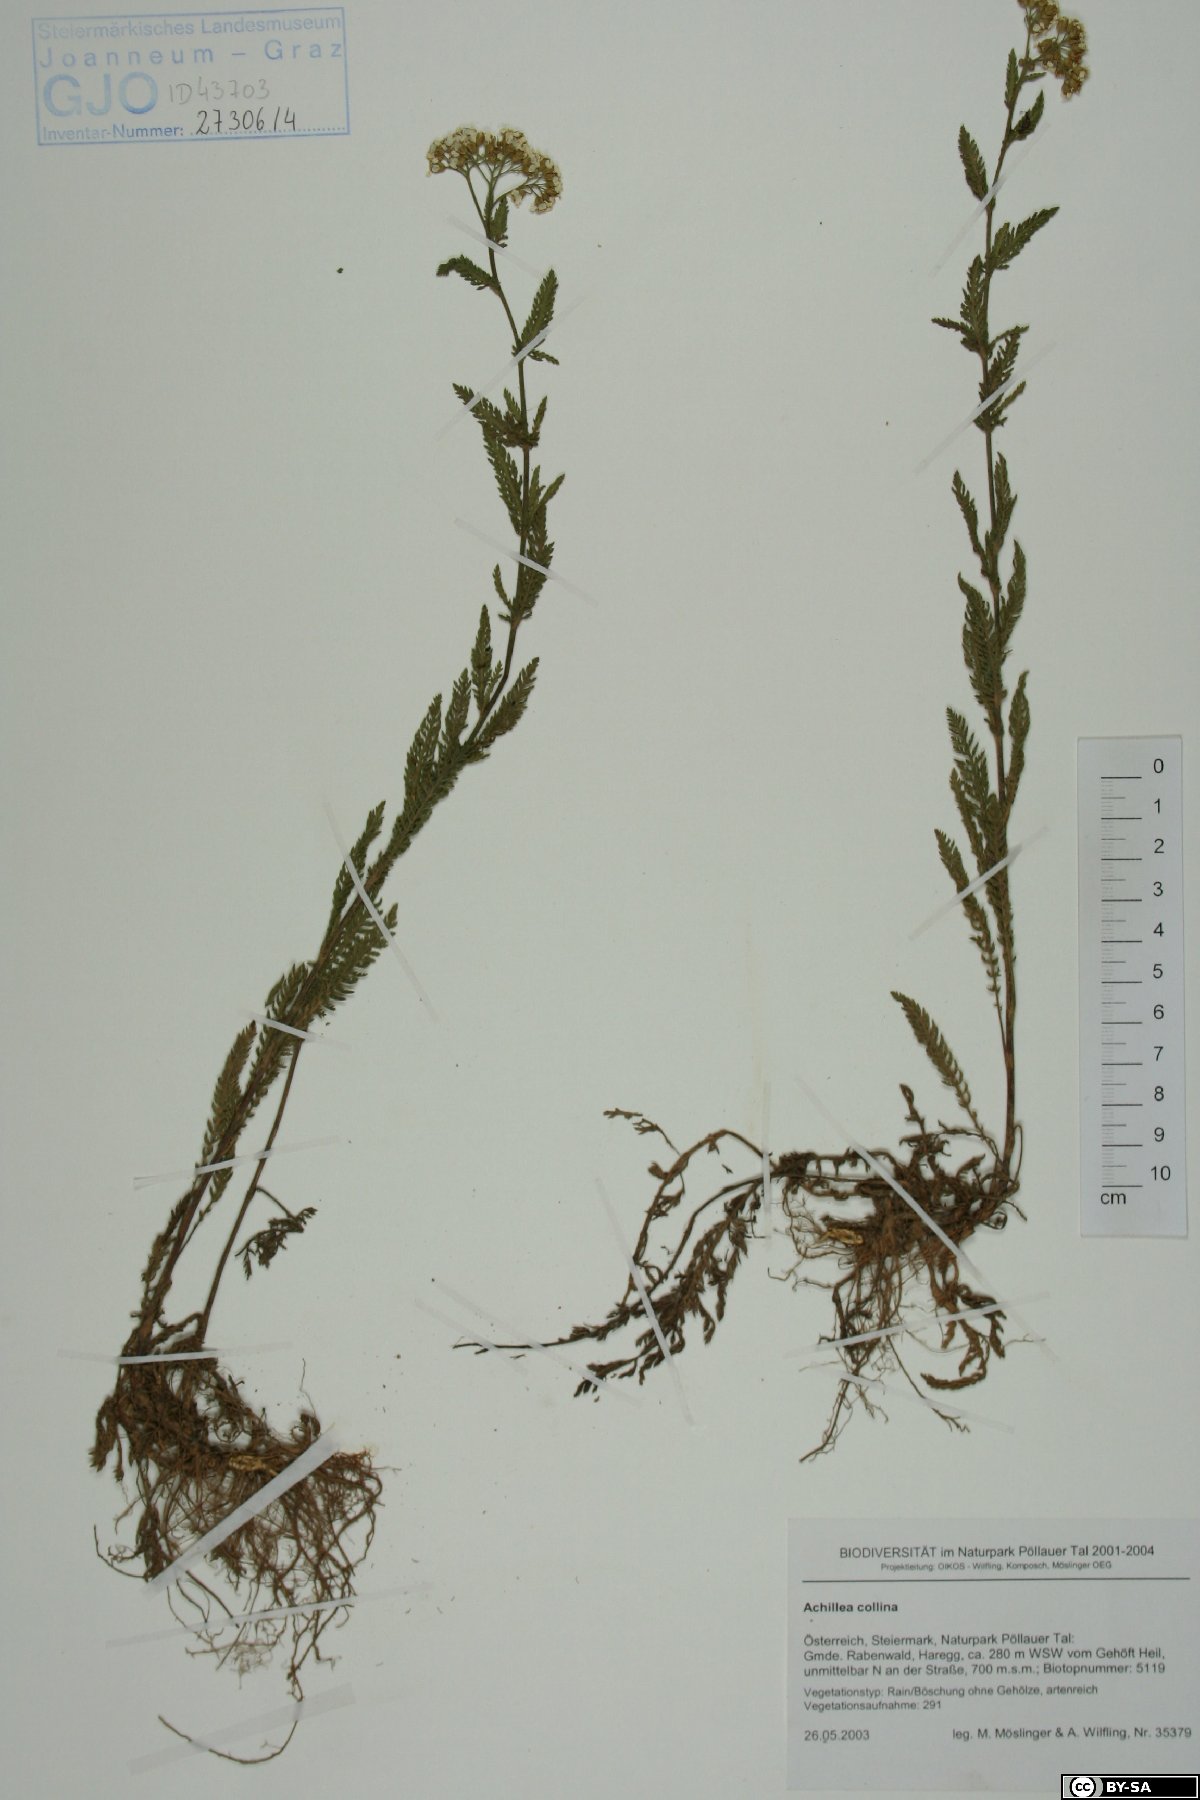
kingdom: Plantae
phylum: Tracheophyta
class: Magnoliopsida
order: Asterales
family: Asteraceae
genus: Achillea
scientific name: Achillea collina
